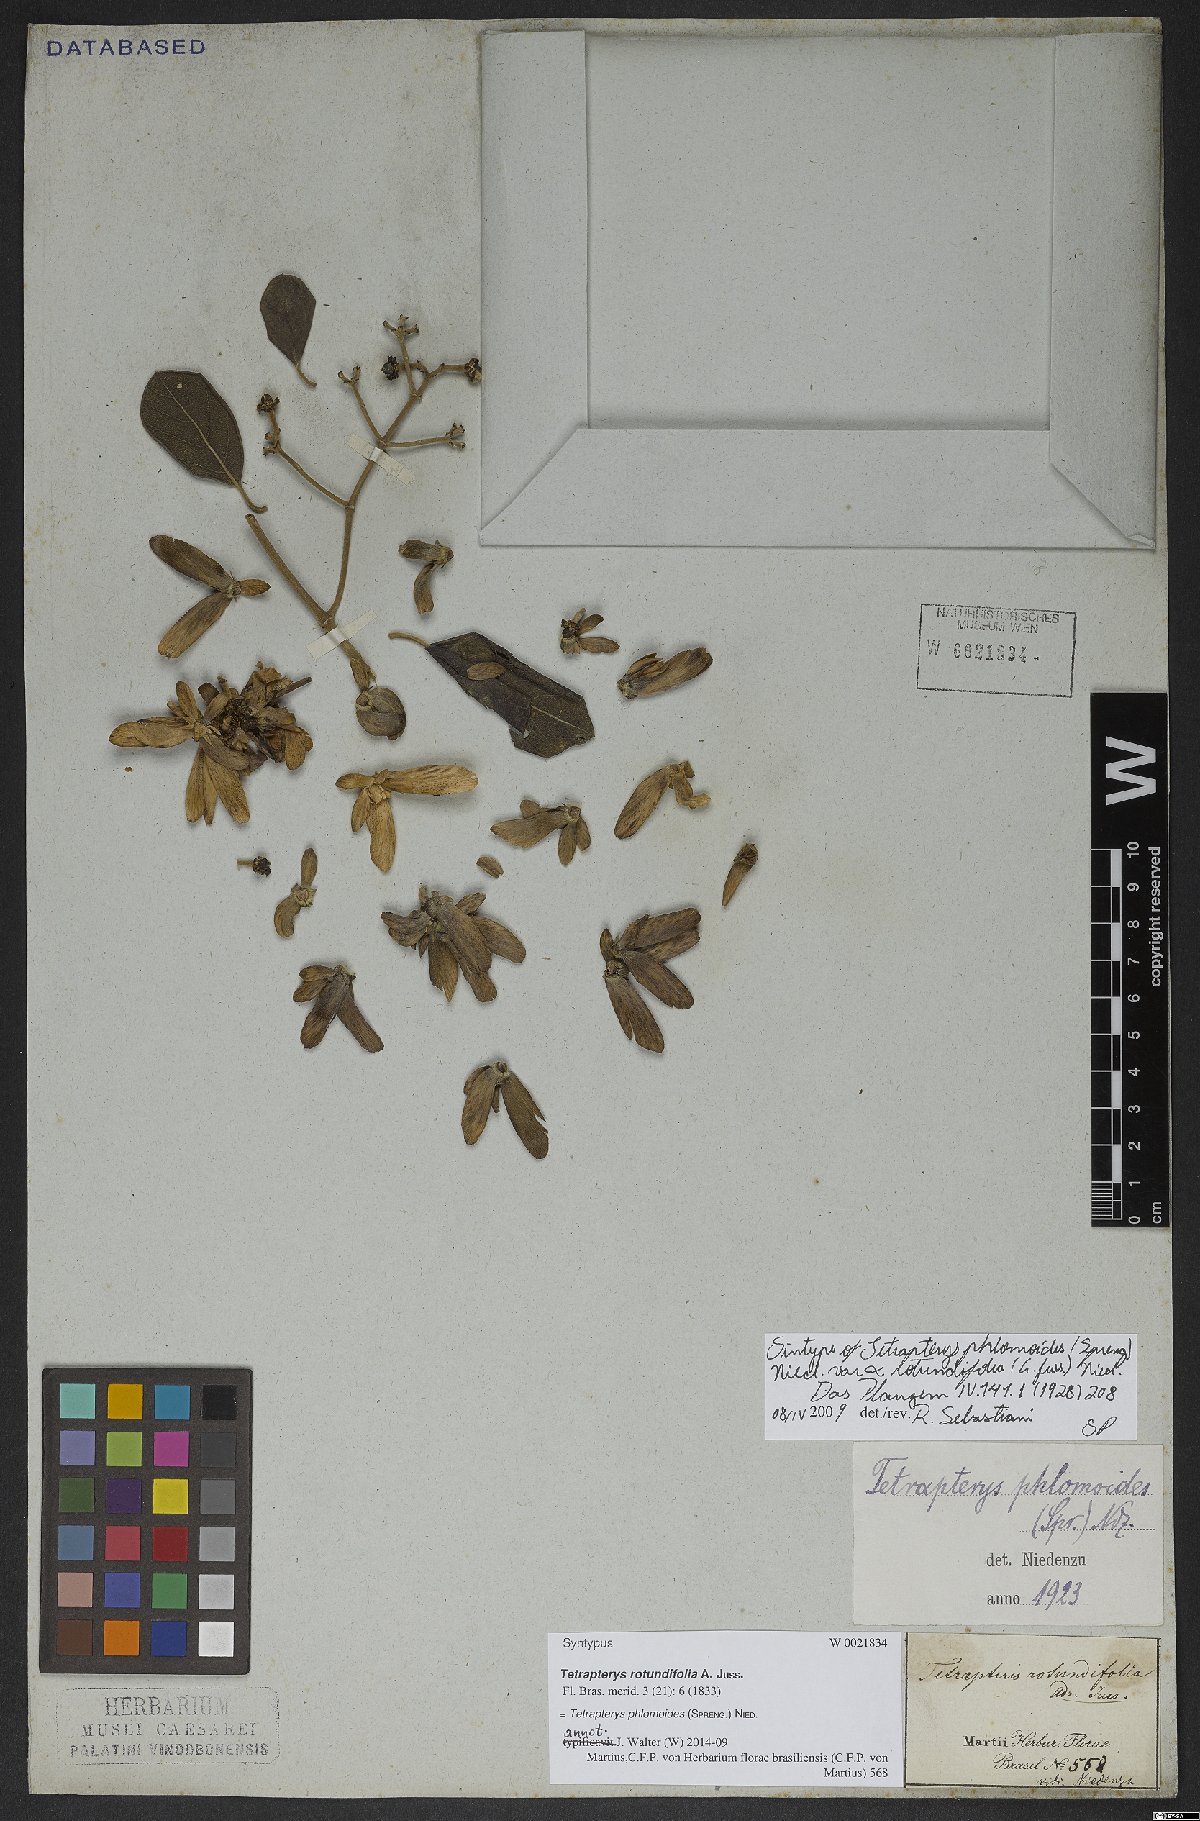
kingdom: Plantae
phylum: Tracheophyta
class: Magnoliopsida
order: Malpighiales
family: Malpighiaceae
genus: Tetrapterys
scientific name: Tetrapterys phlomoides
